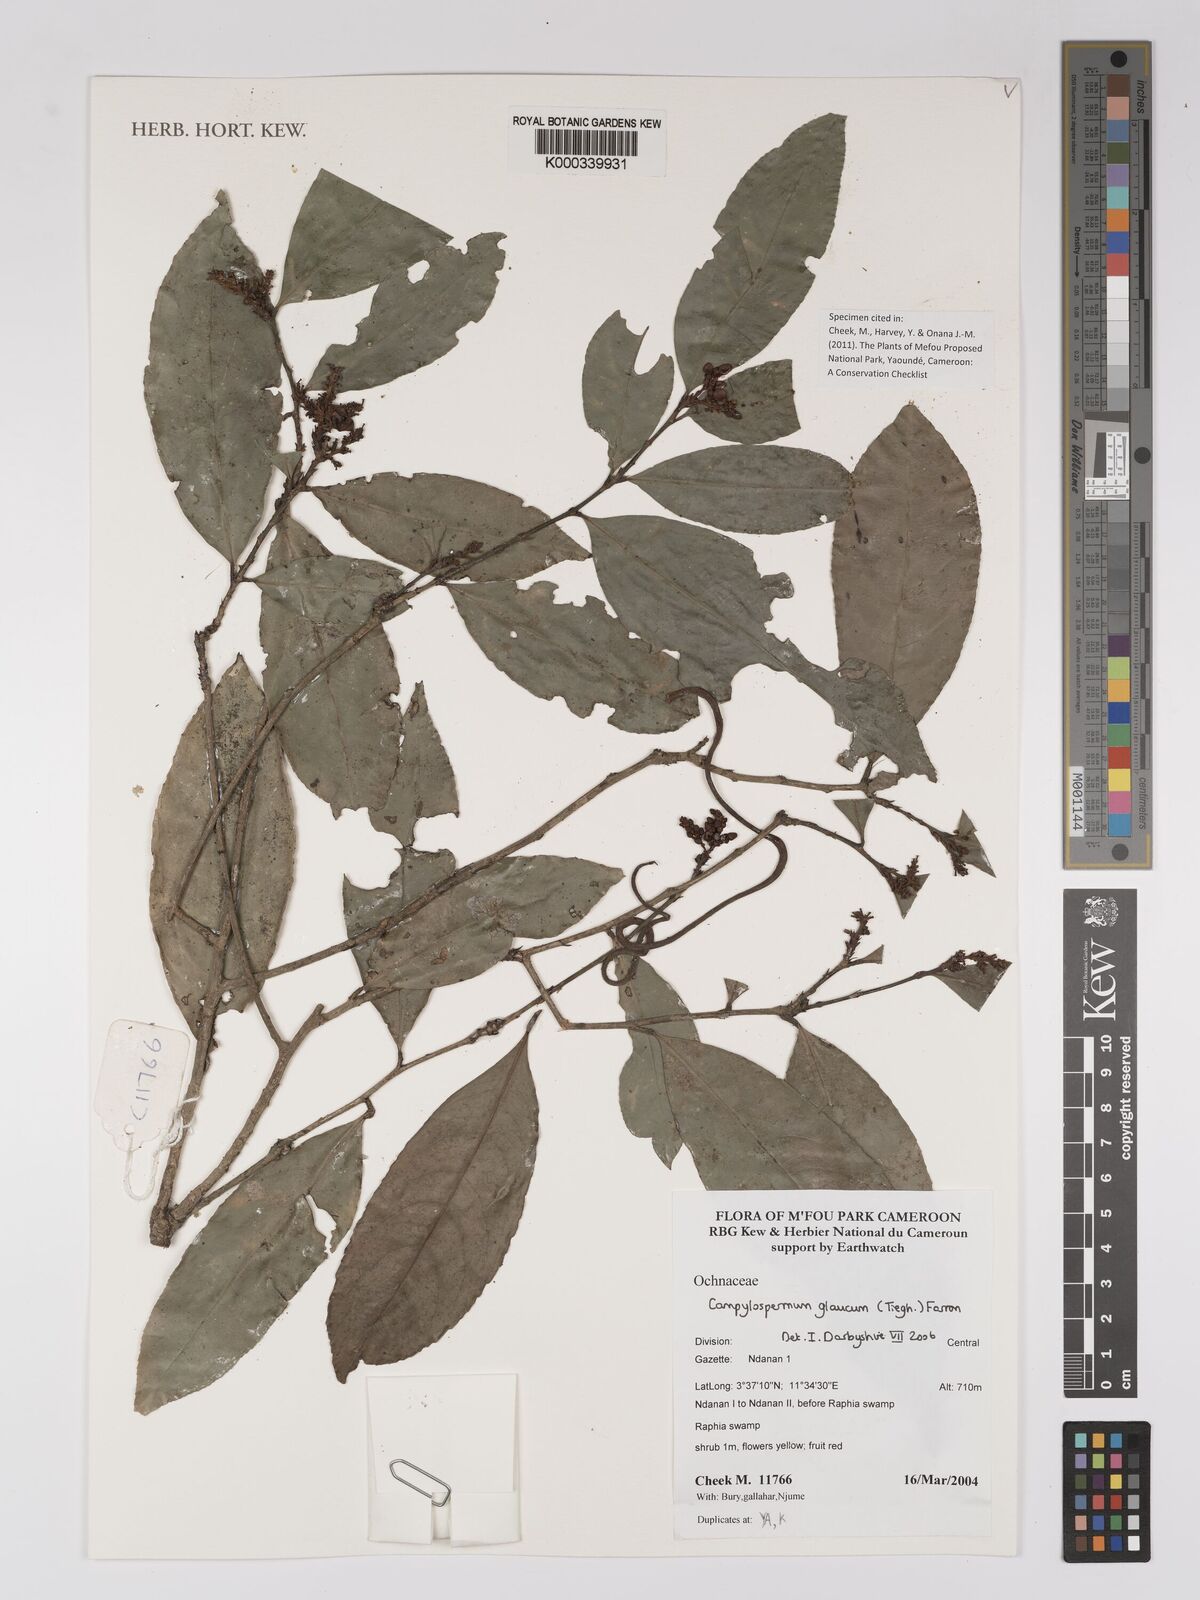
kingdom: Plantae
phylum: Tracheophyta
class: Magnoliopsida
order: Malpighiales
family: Ochnaceae
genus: Campylospermum
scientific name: Campylospermum glaucum
